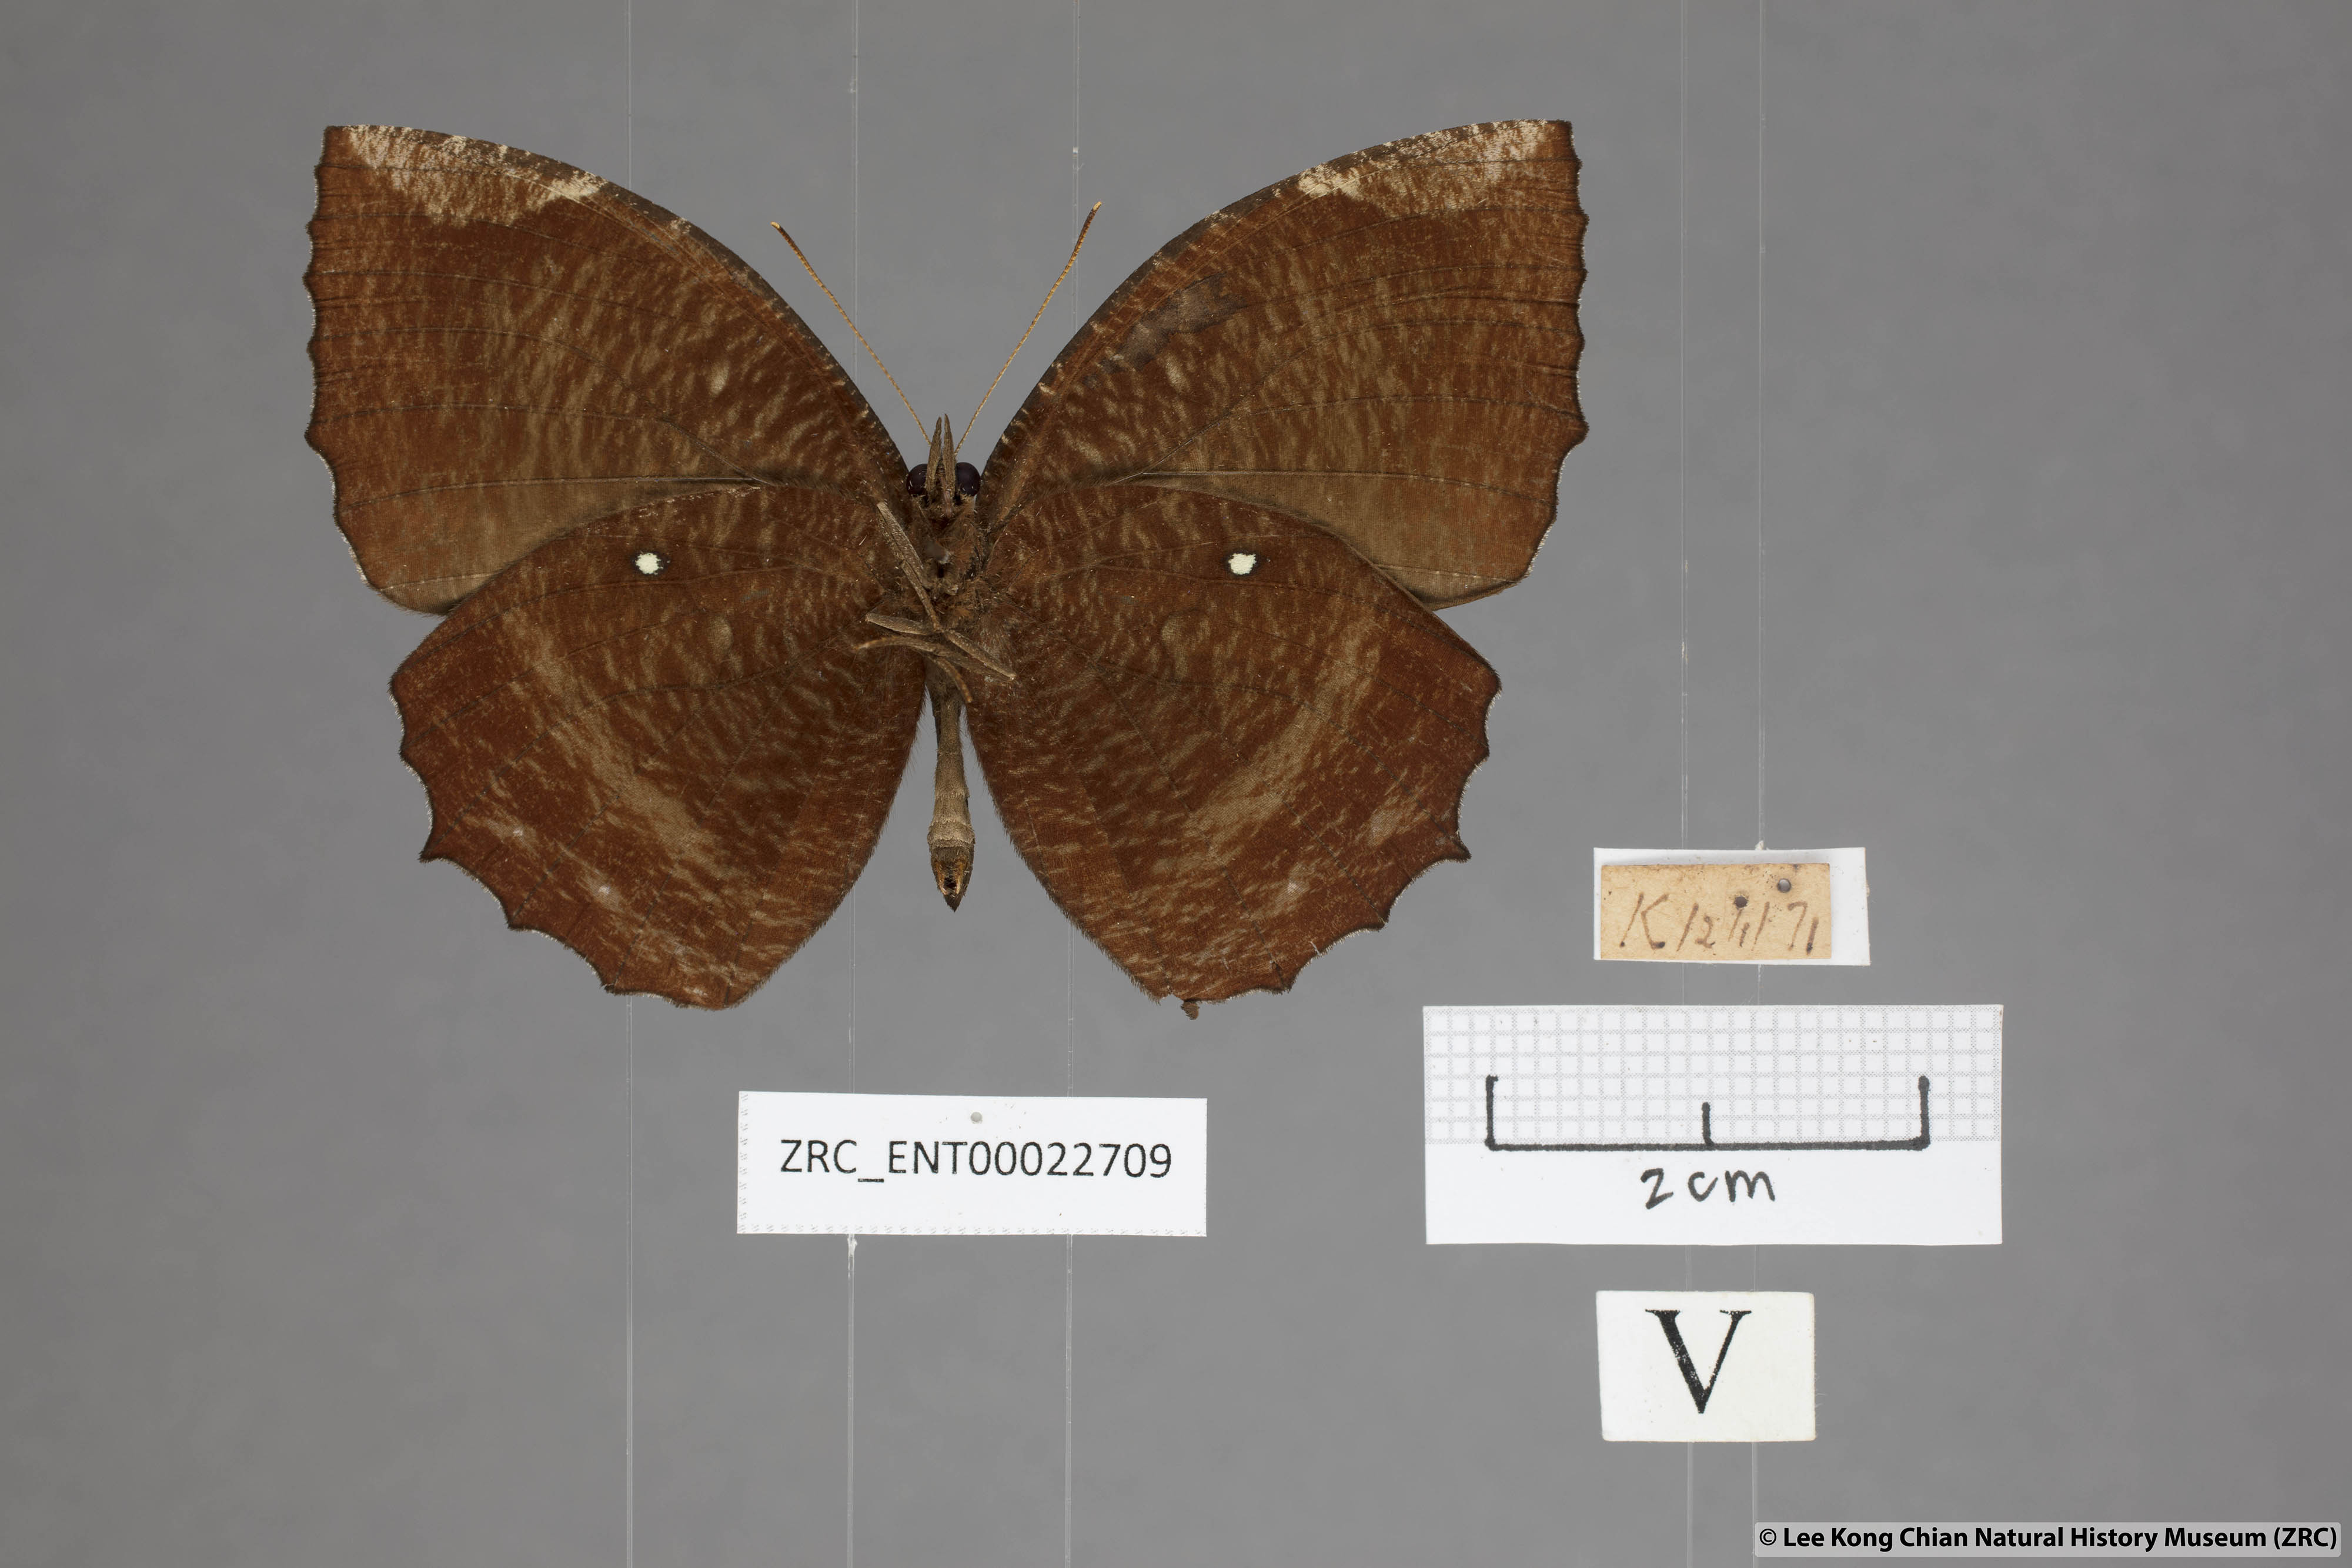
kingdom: Animalia
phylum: Arthropoda
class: Insecta
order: Lepidoptera
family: Nymphalidae
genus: Elymnias
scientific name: Elymnias hypermnestra
